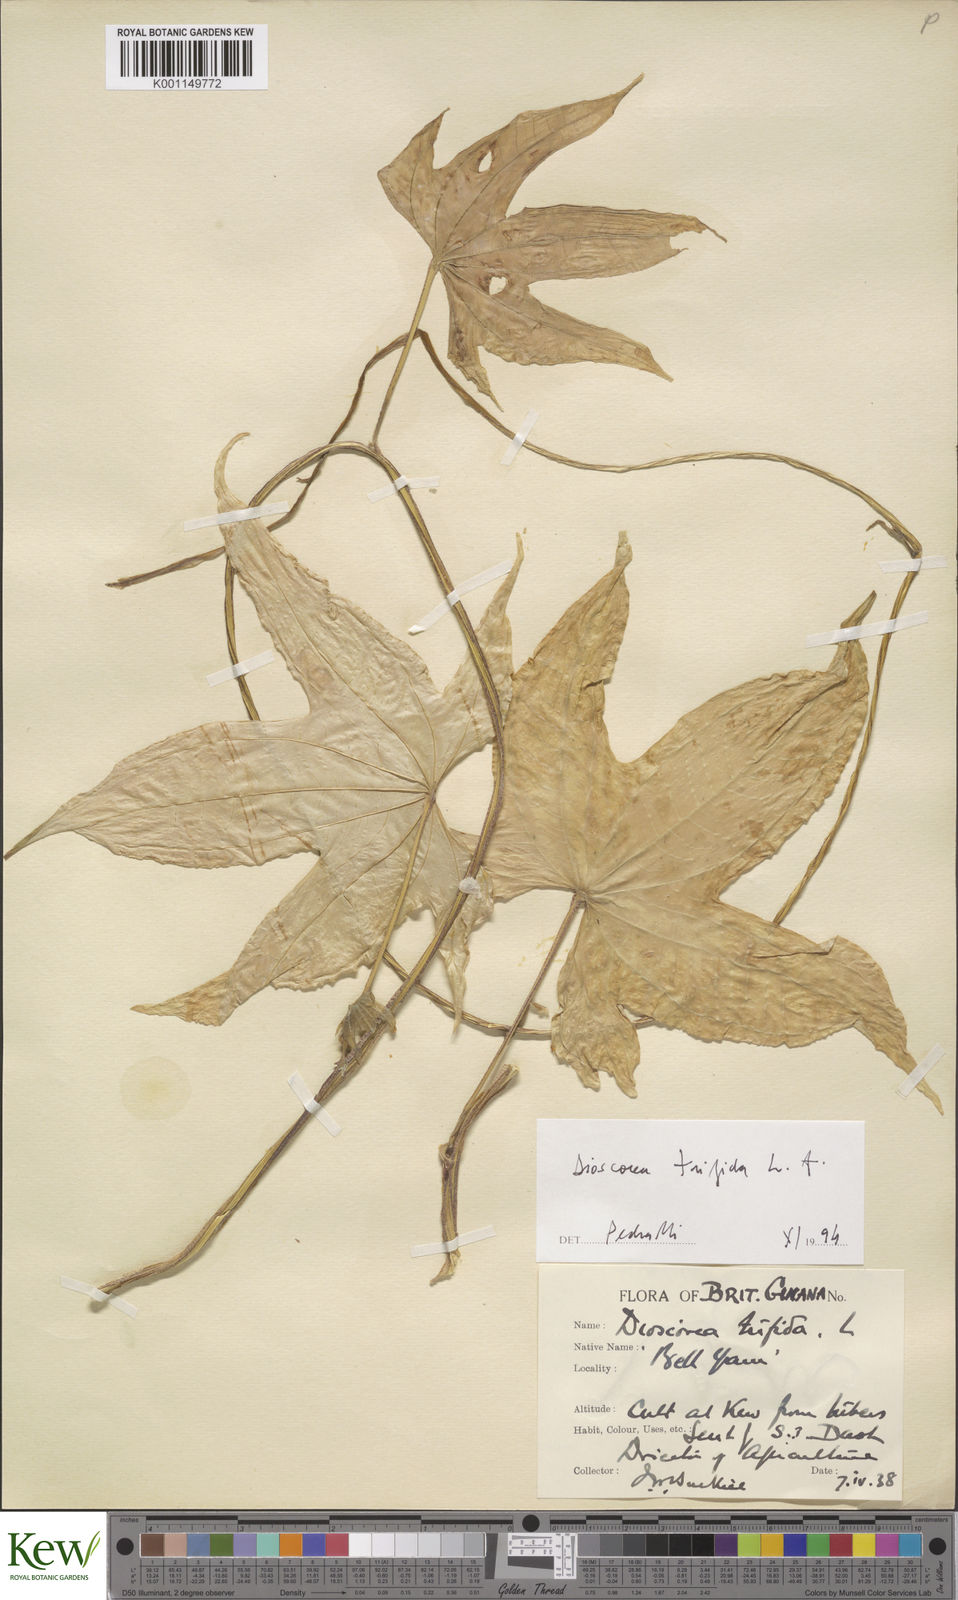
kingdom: Plantae
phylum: Tracheophyta
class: Liliopsida
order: Dioscoreales
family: Dioscoreaceae
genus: Dioscorea
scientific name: Dioscorea trifida
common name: Cush-cush
